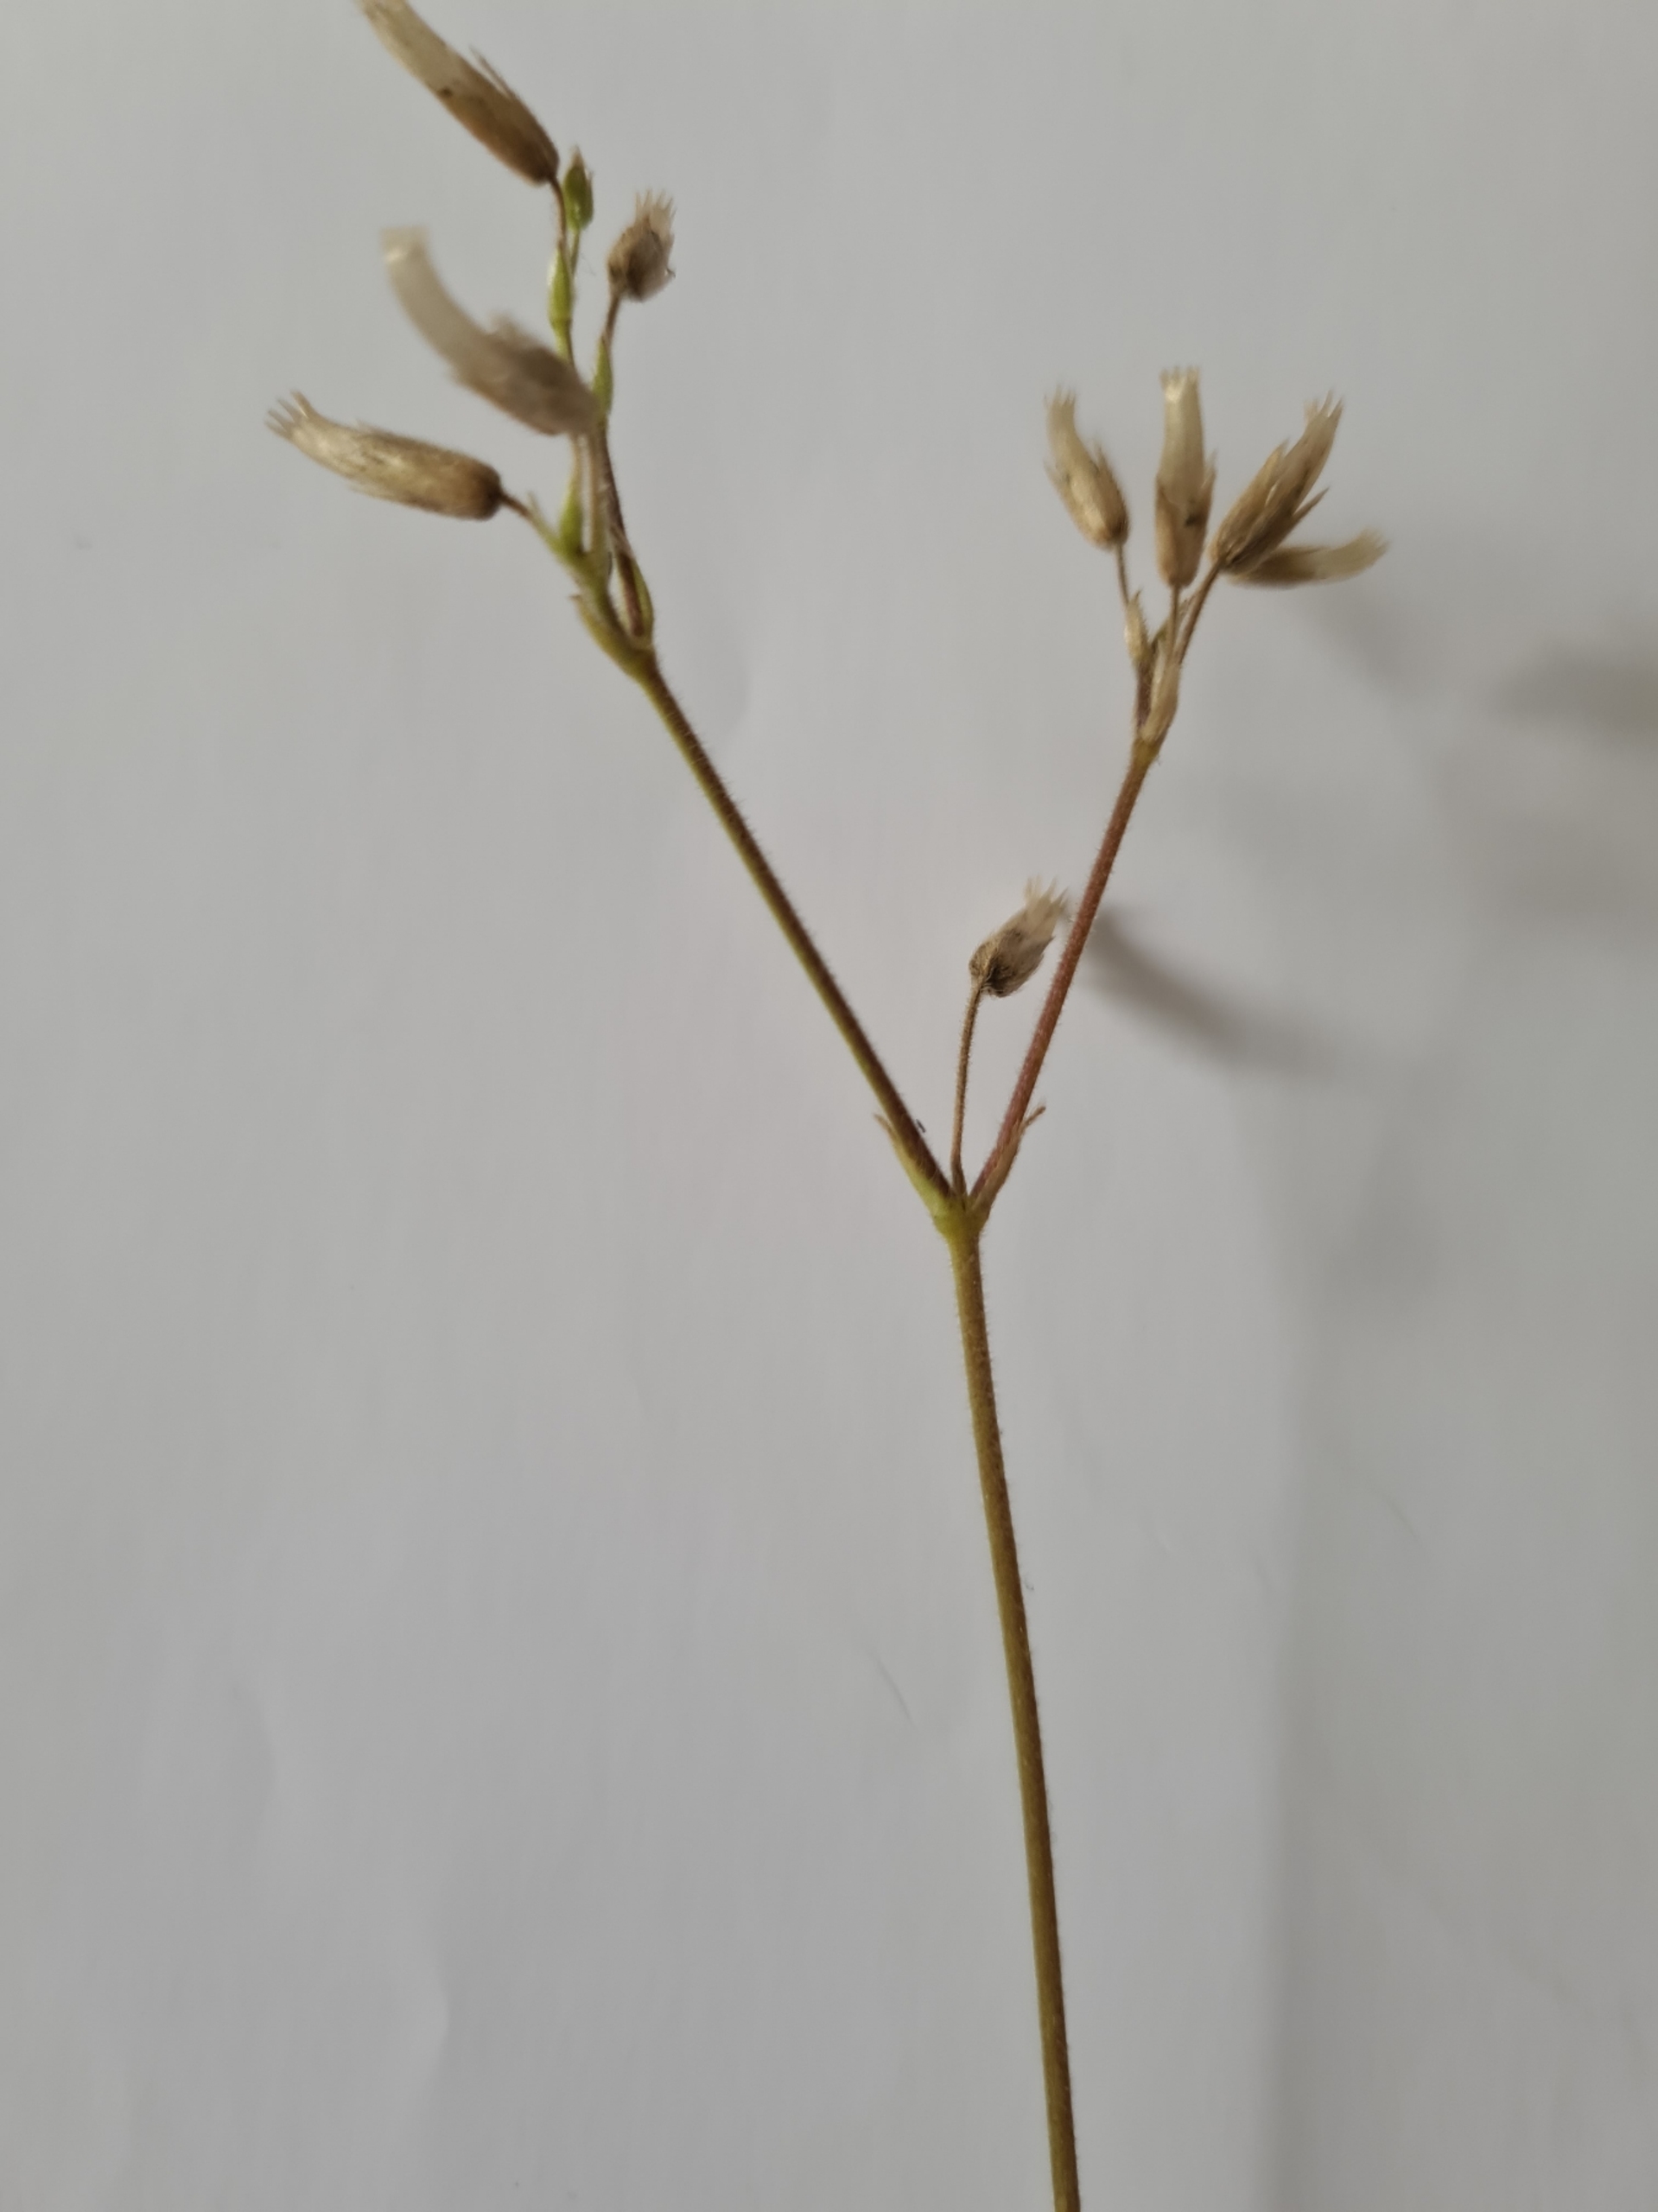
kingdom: Plantae
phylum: Tracheophyta
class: Magnoliopsida
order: Caryophyllales
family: Caryophyllaceae
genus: Cerastium
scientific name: Cerastium fontanum
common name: Almindelig hønsetarm
